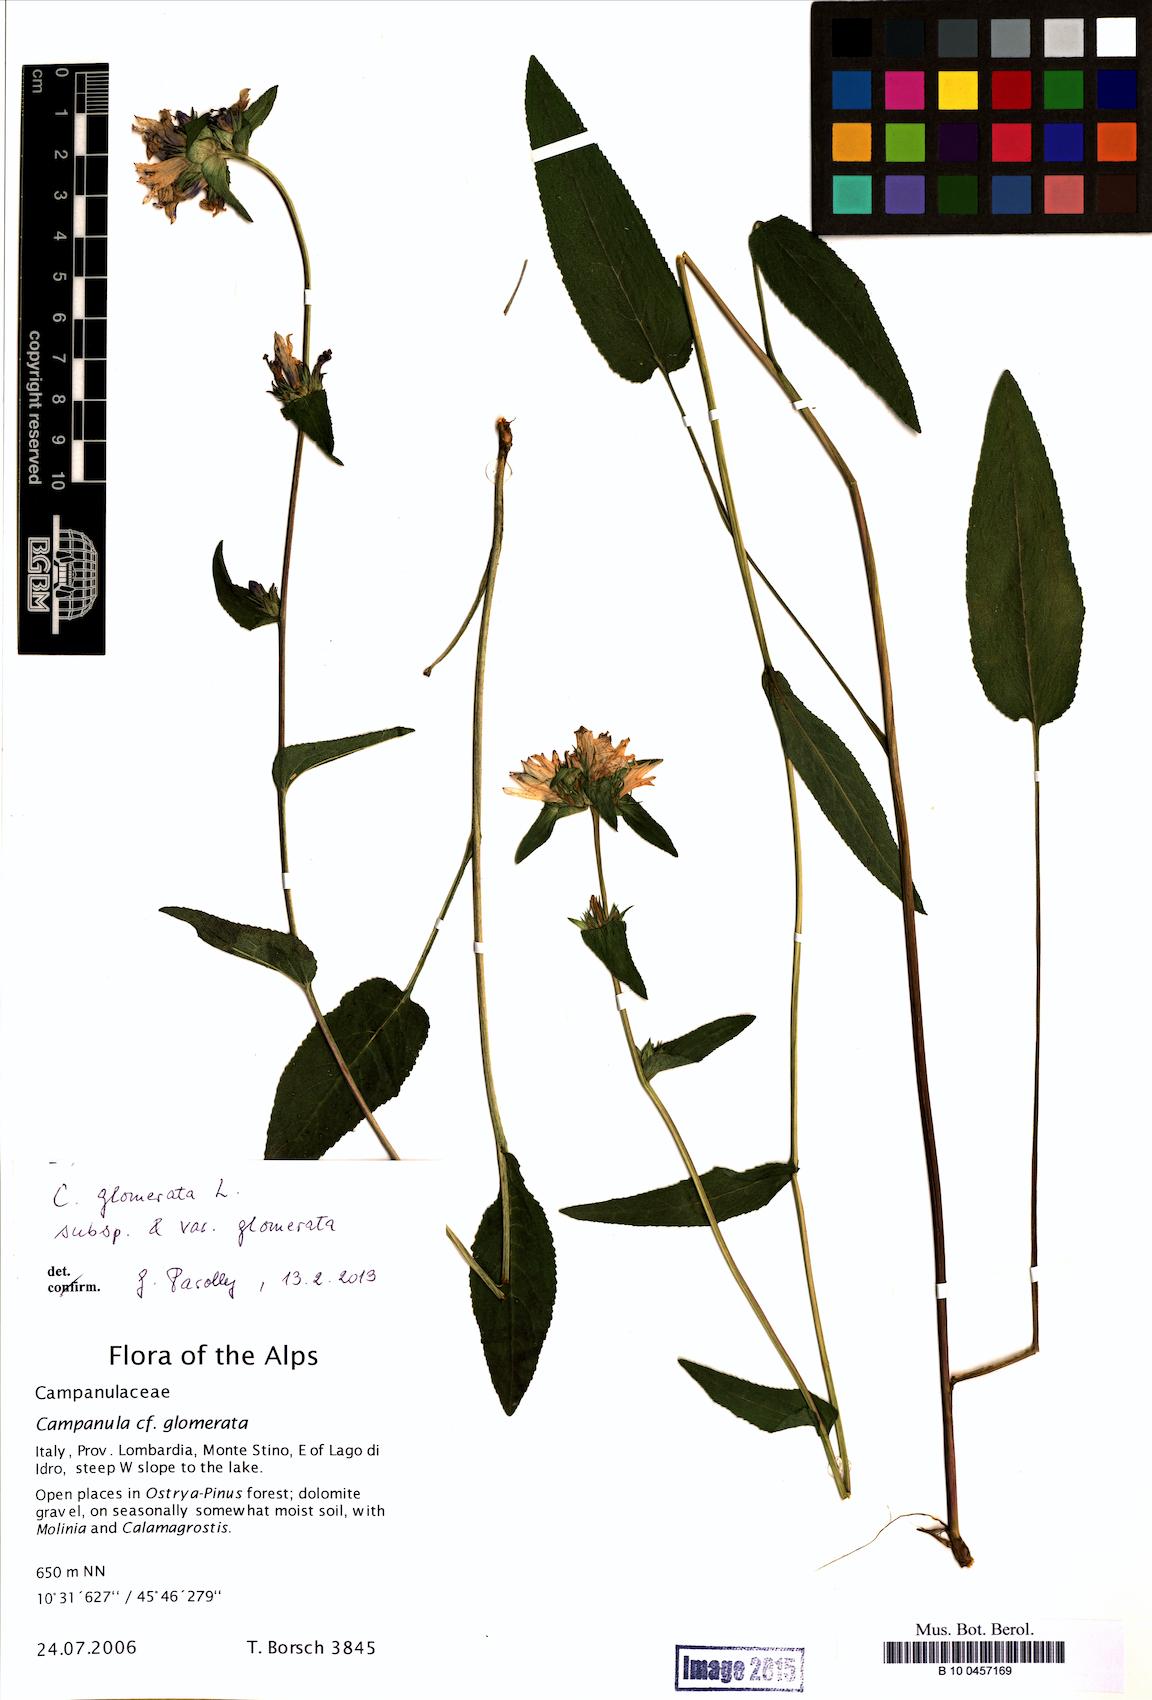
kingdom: Plantae
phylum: Tracheophyta
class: Magnoliopsida
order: Asterales
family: Campanulaceae
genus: Campanula
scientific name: Campanula glomerata
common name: Clustered bellflower
